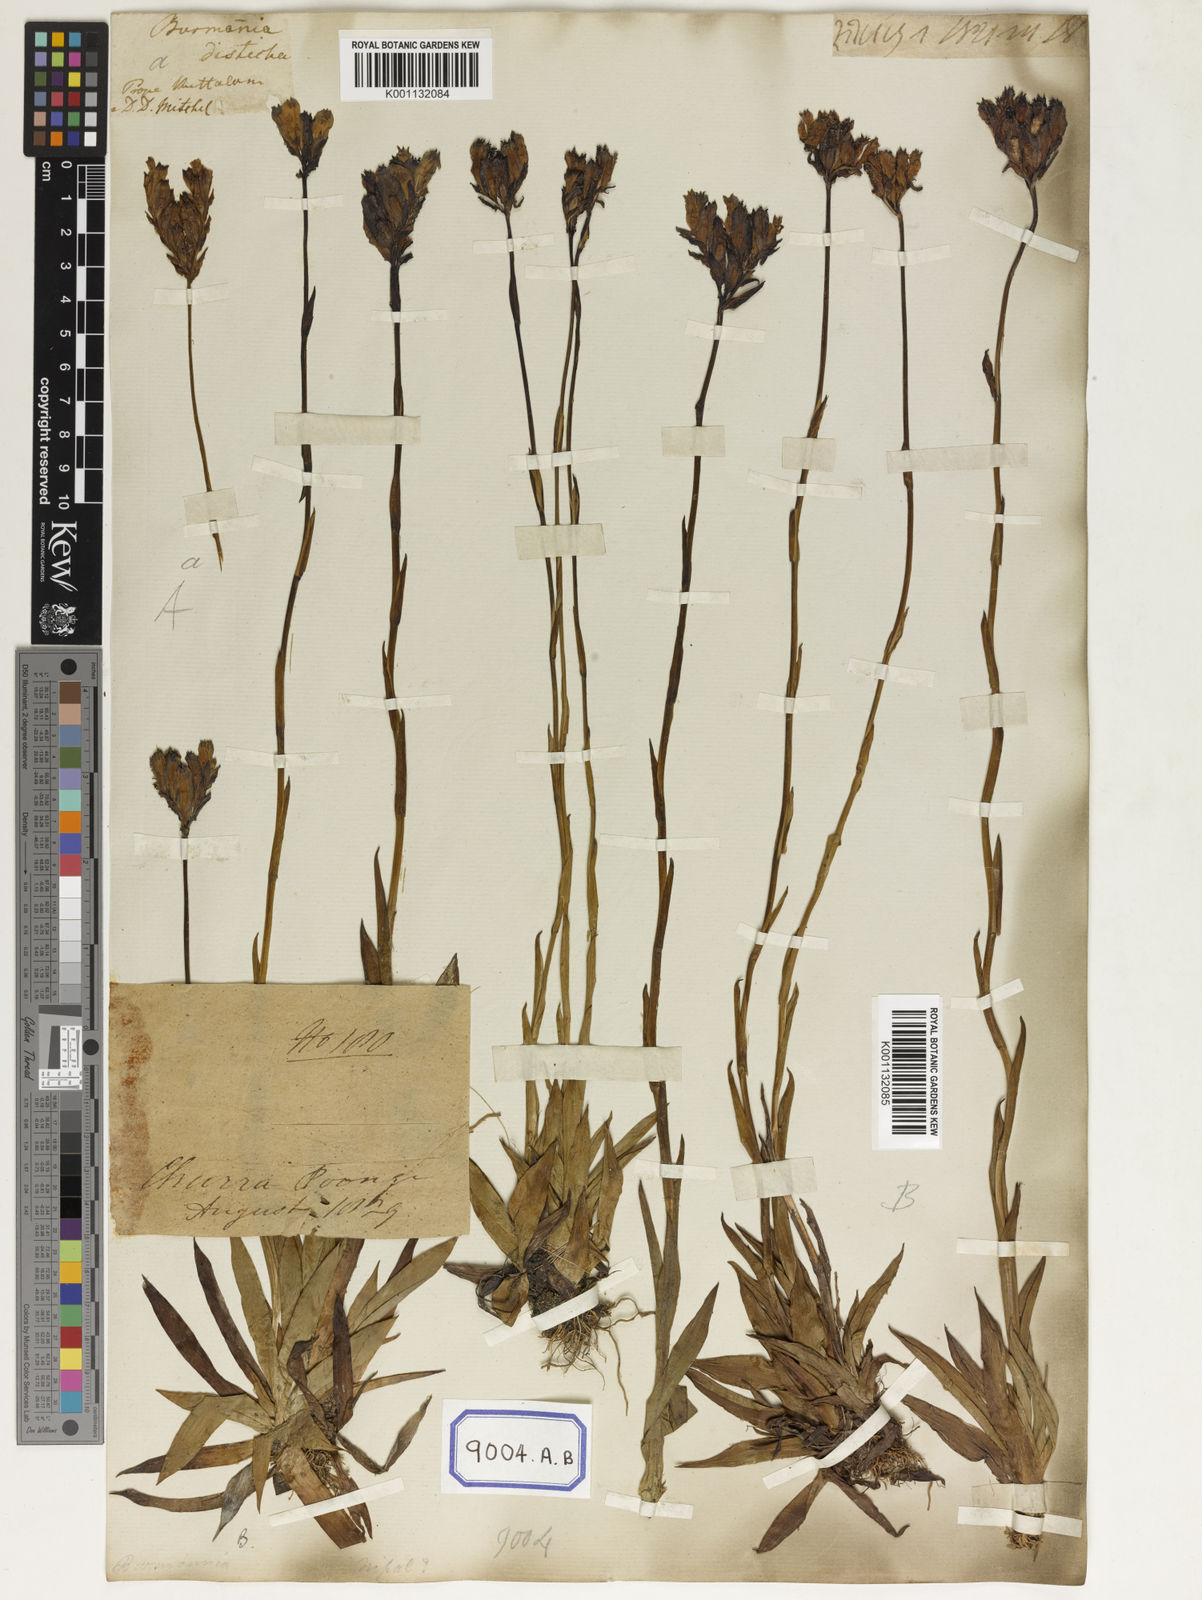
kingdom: Plantae
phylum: Tracheophyta
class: Liliopsida
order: Dioscoreales
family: Burmanniaceae
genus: Burmannia
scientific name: Burmannia disticha
